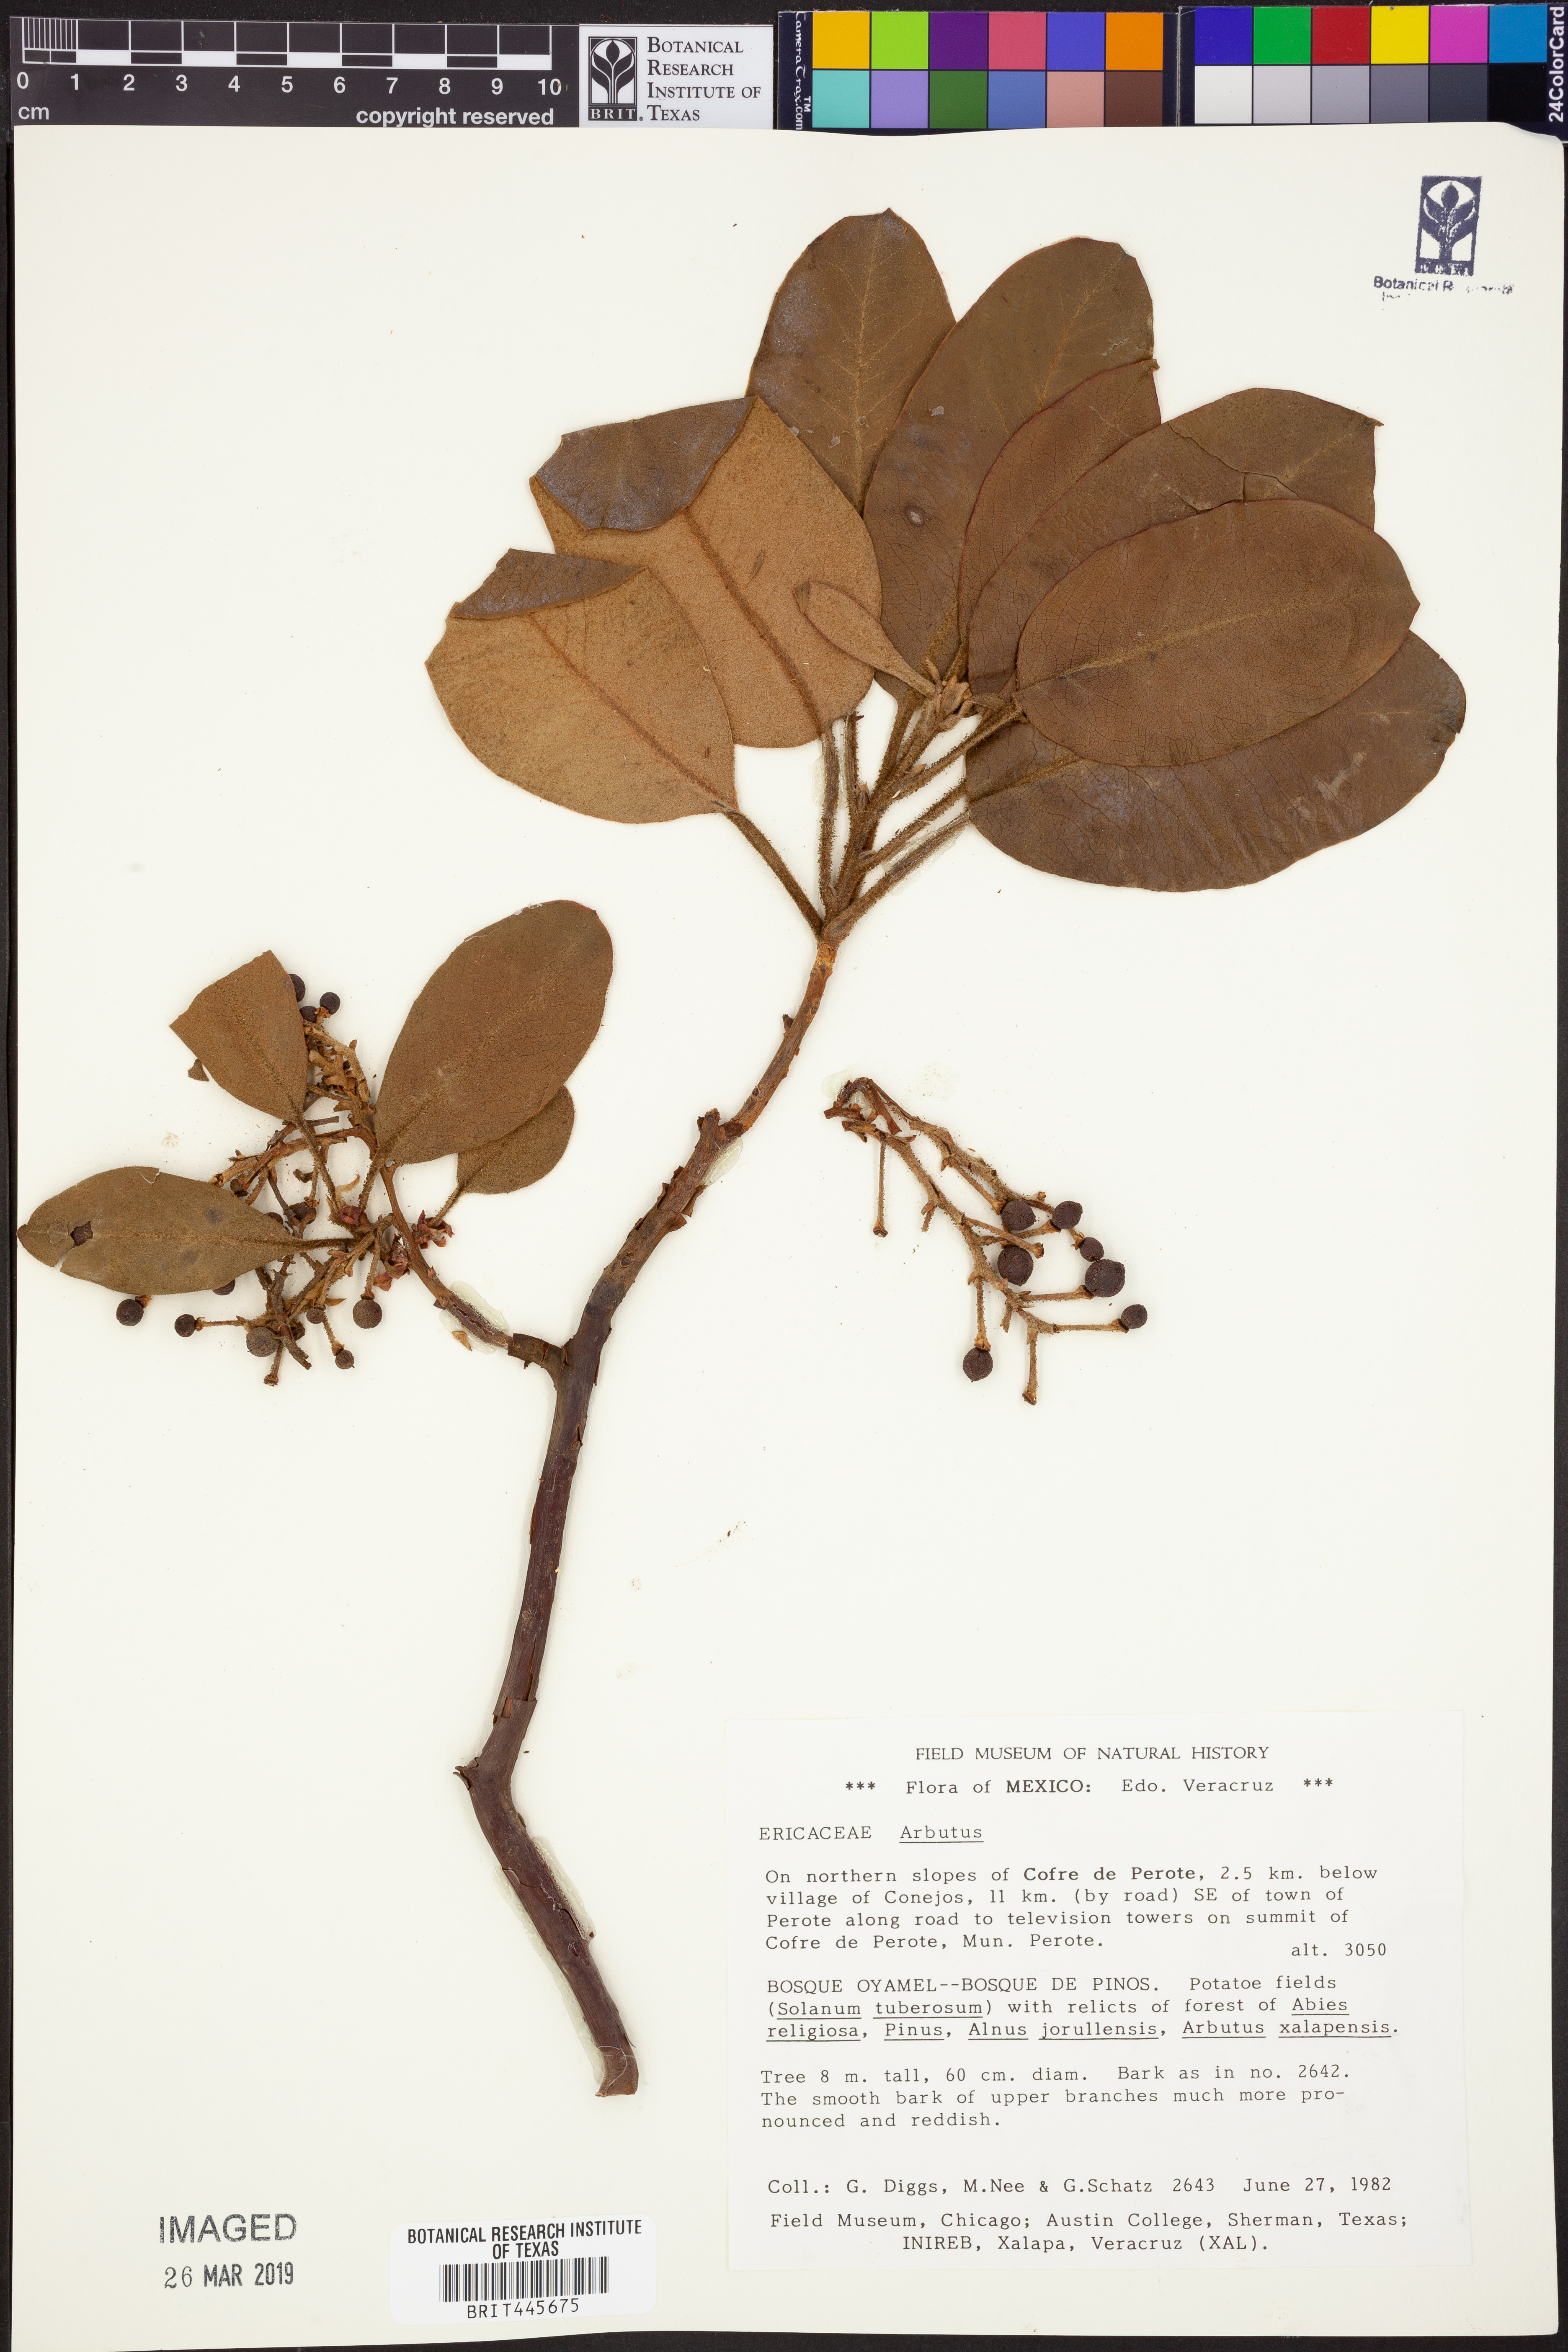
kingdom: Plantae
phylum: Tracheophyta
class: Magnoliopsida
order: Ericales
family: Ericaceae
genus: Arbutus
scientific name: Arbutus
